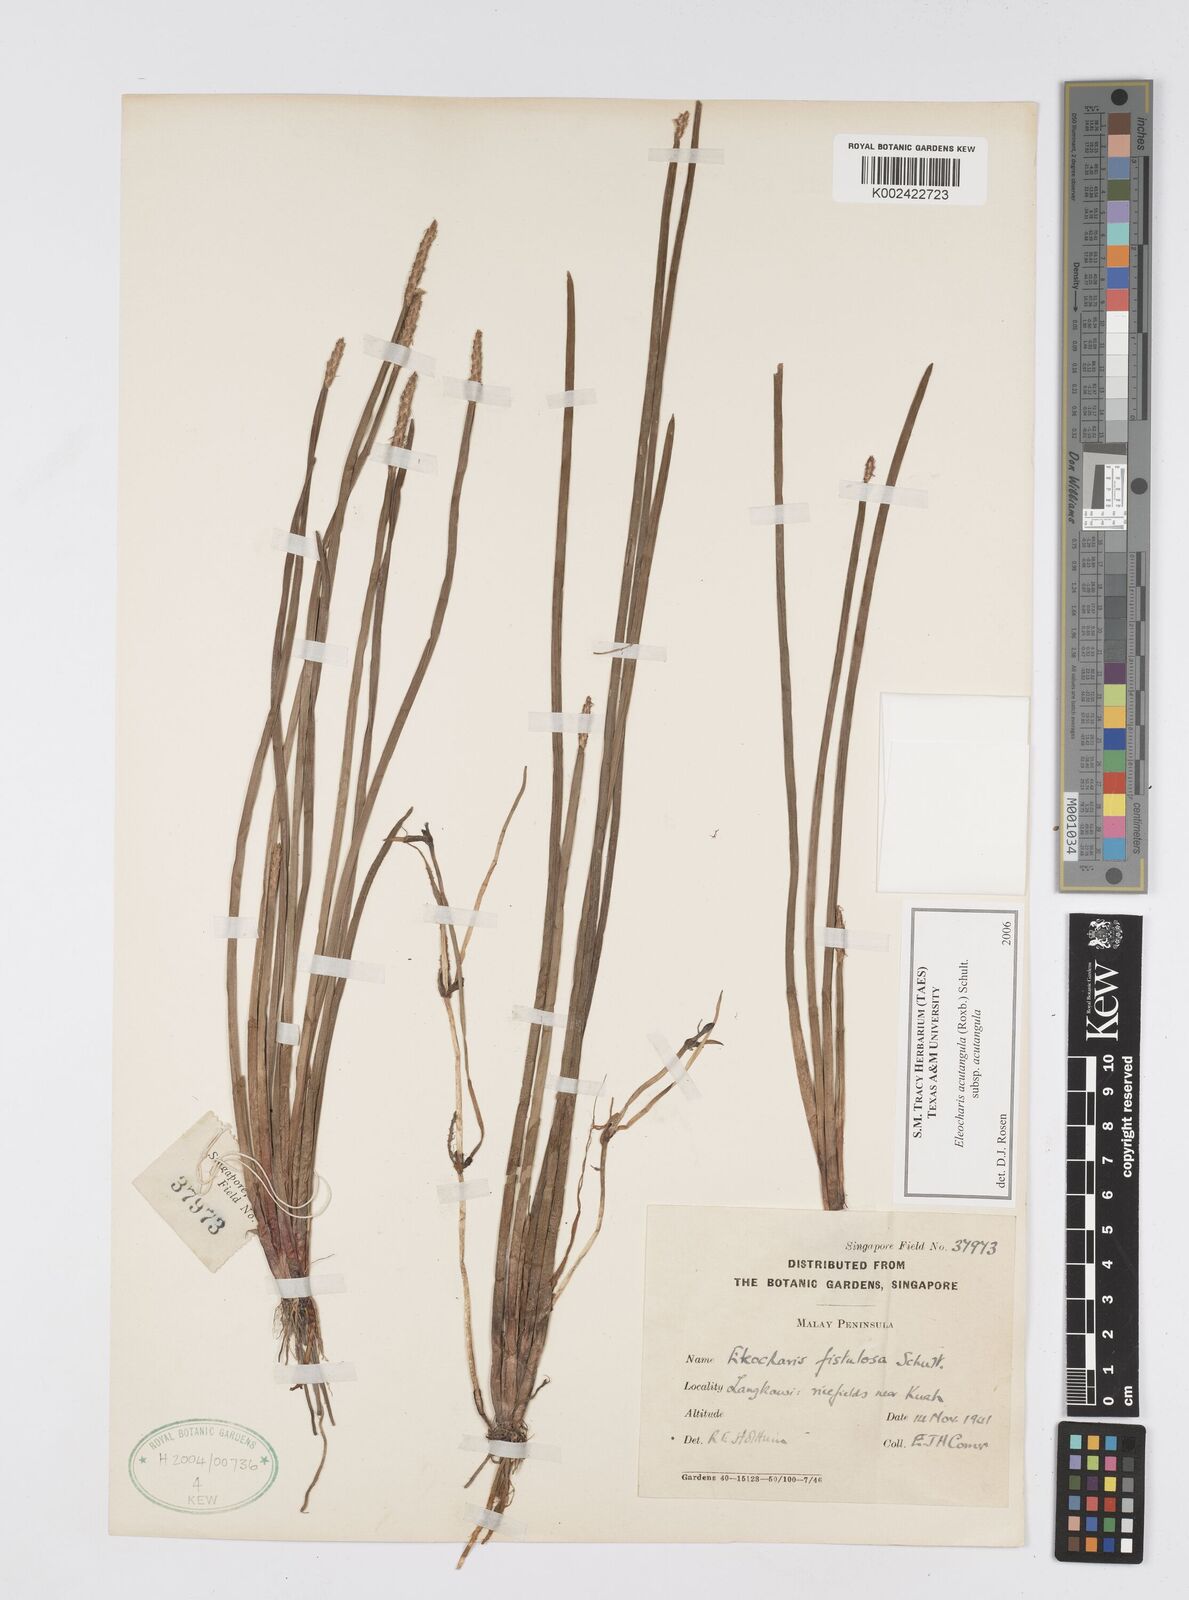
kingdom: Plantae
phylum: Tracheophyta
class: Liliopsida
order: Poales
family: Cyperaceae
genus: Eleocharis
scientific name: Eleocharis acutangula
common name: Acute spikerush
